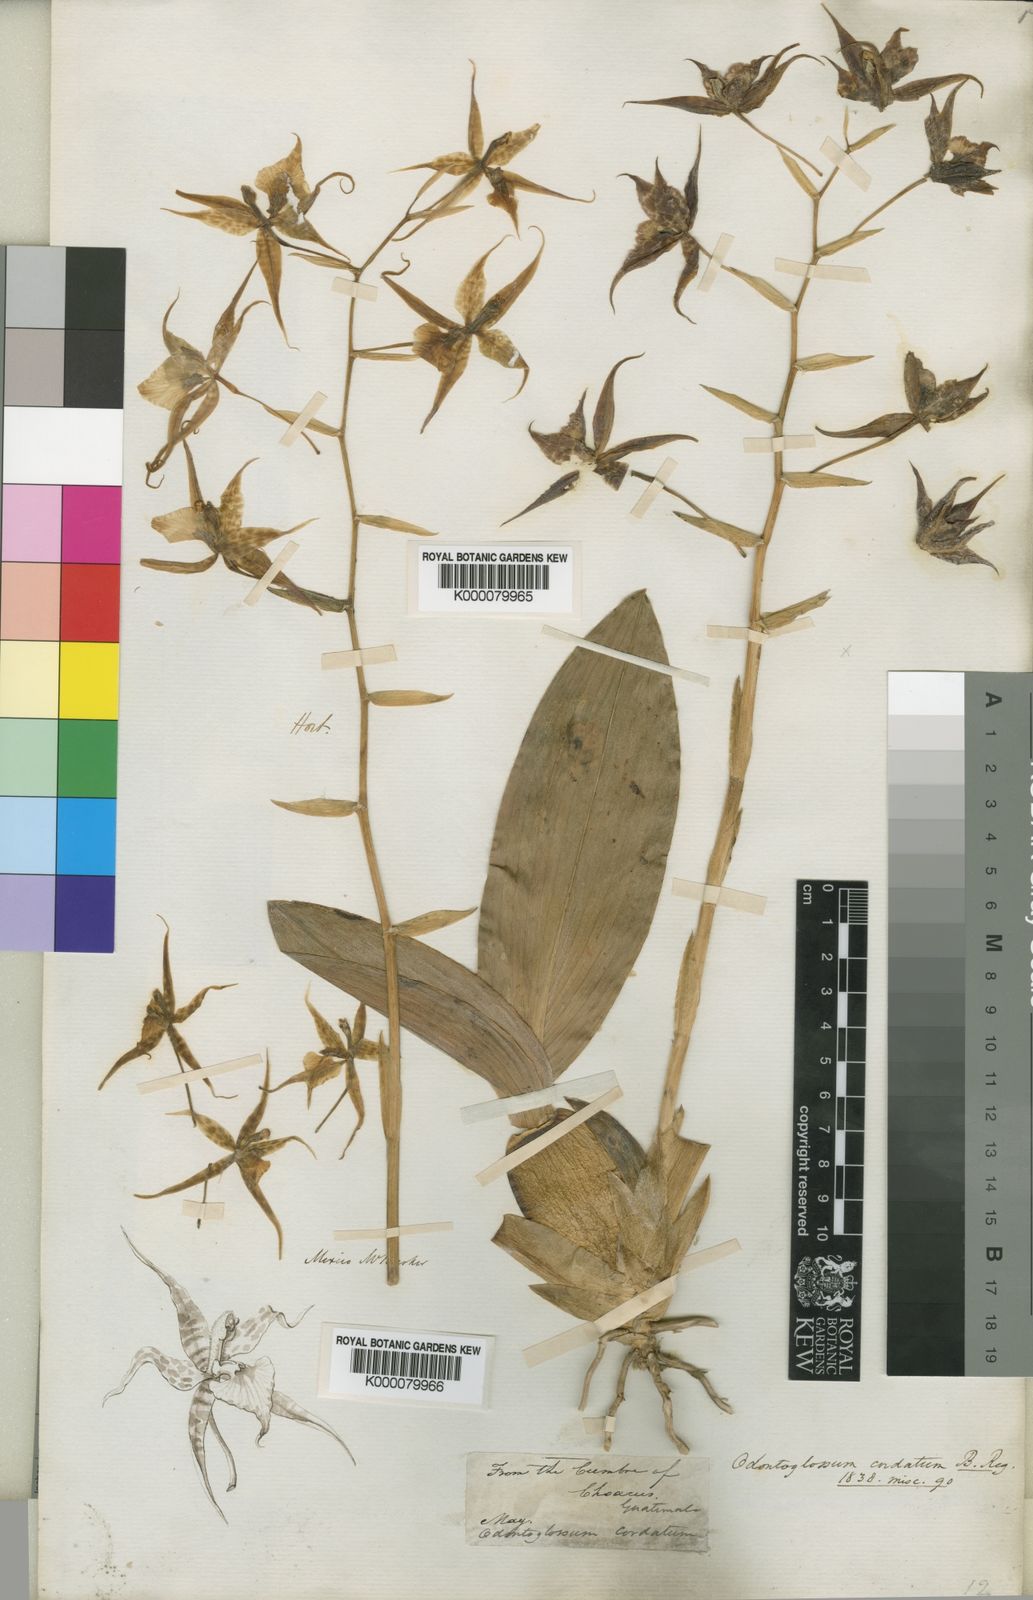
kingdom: Plantae
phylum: Tracheophyta
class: Liliopsida
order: Asparagales
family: Orchidaceae
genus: Rhynchostele
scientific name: Rhynchostele cordata
